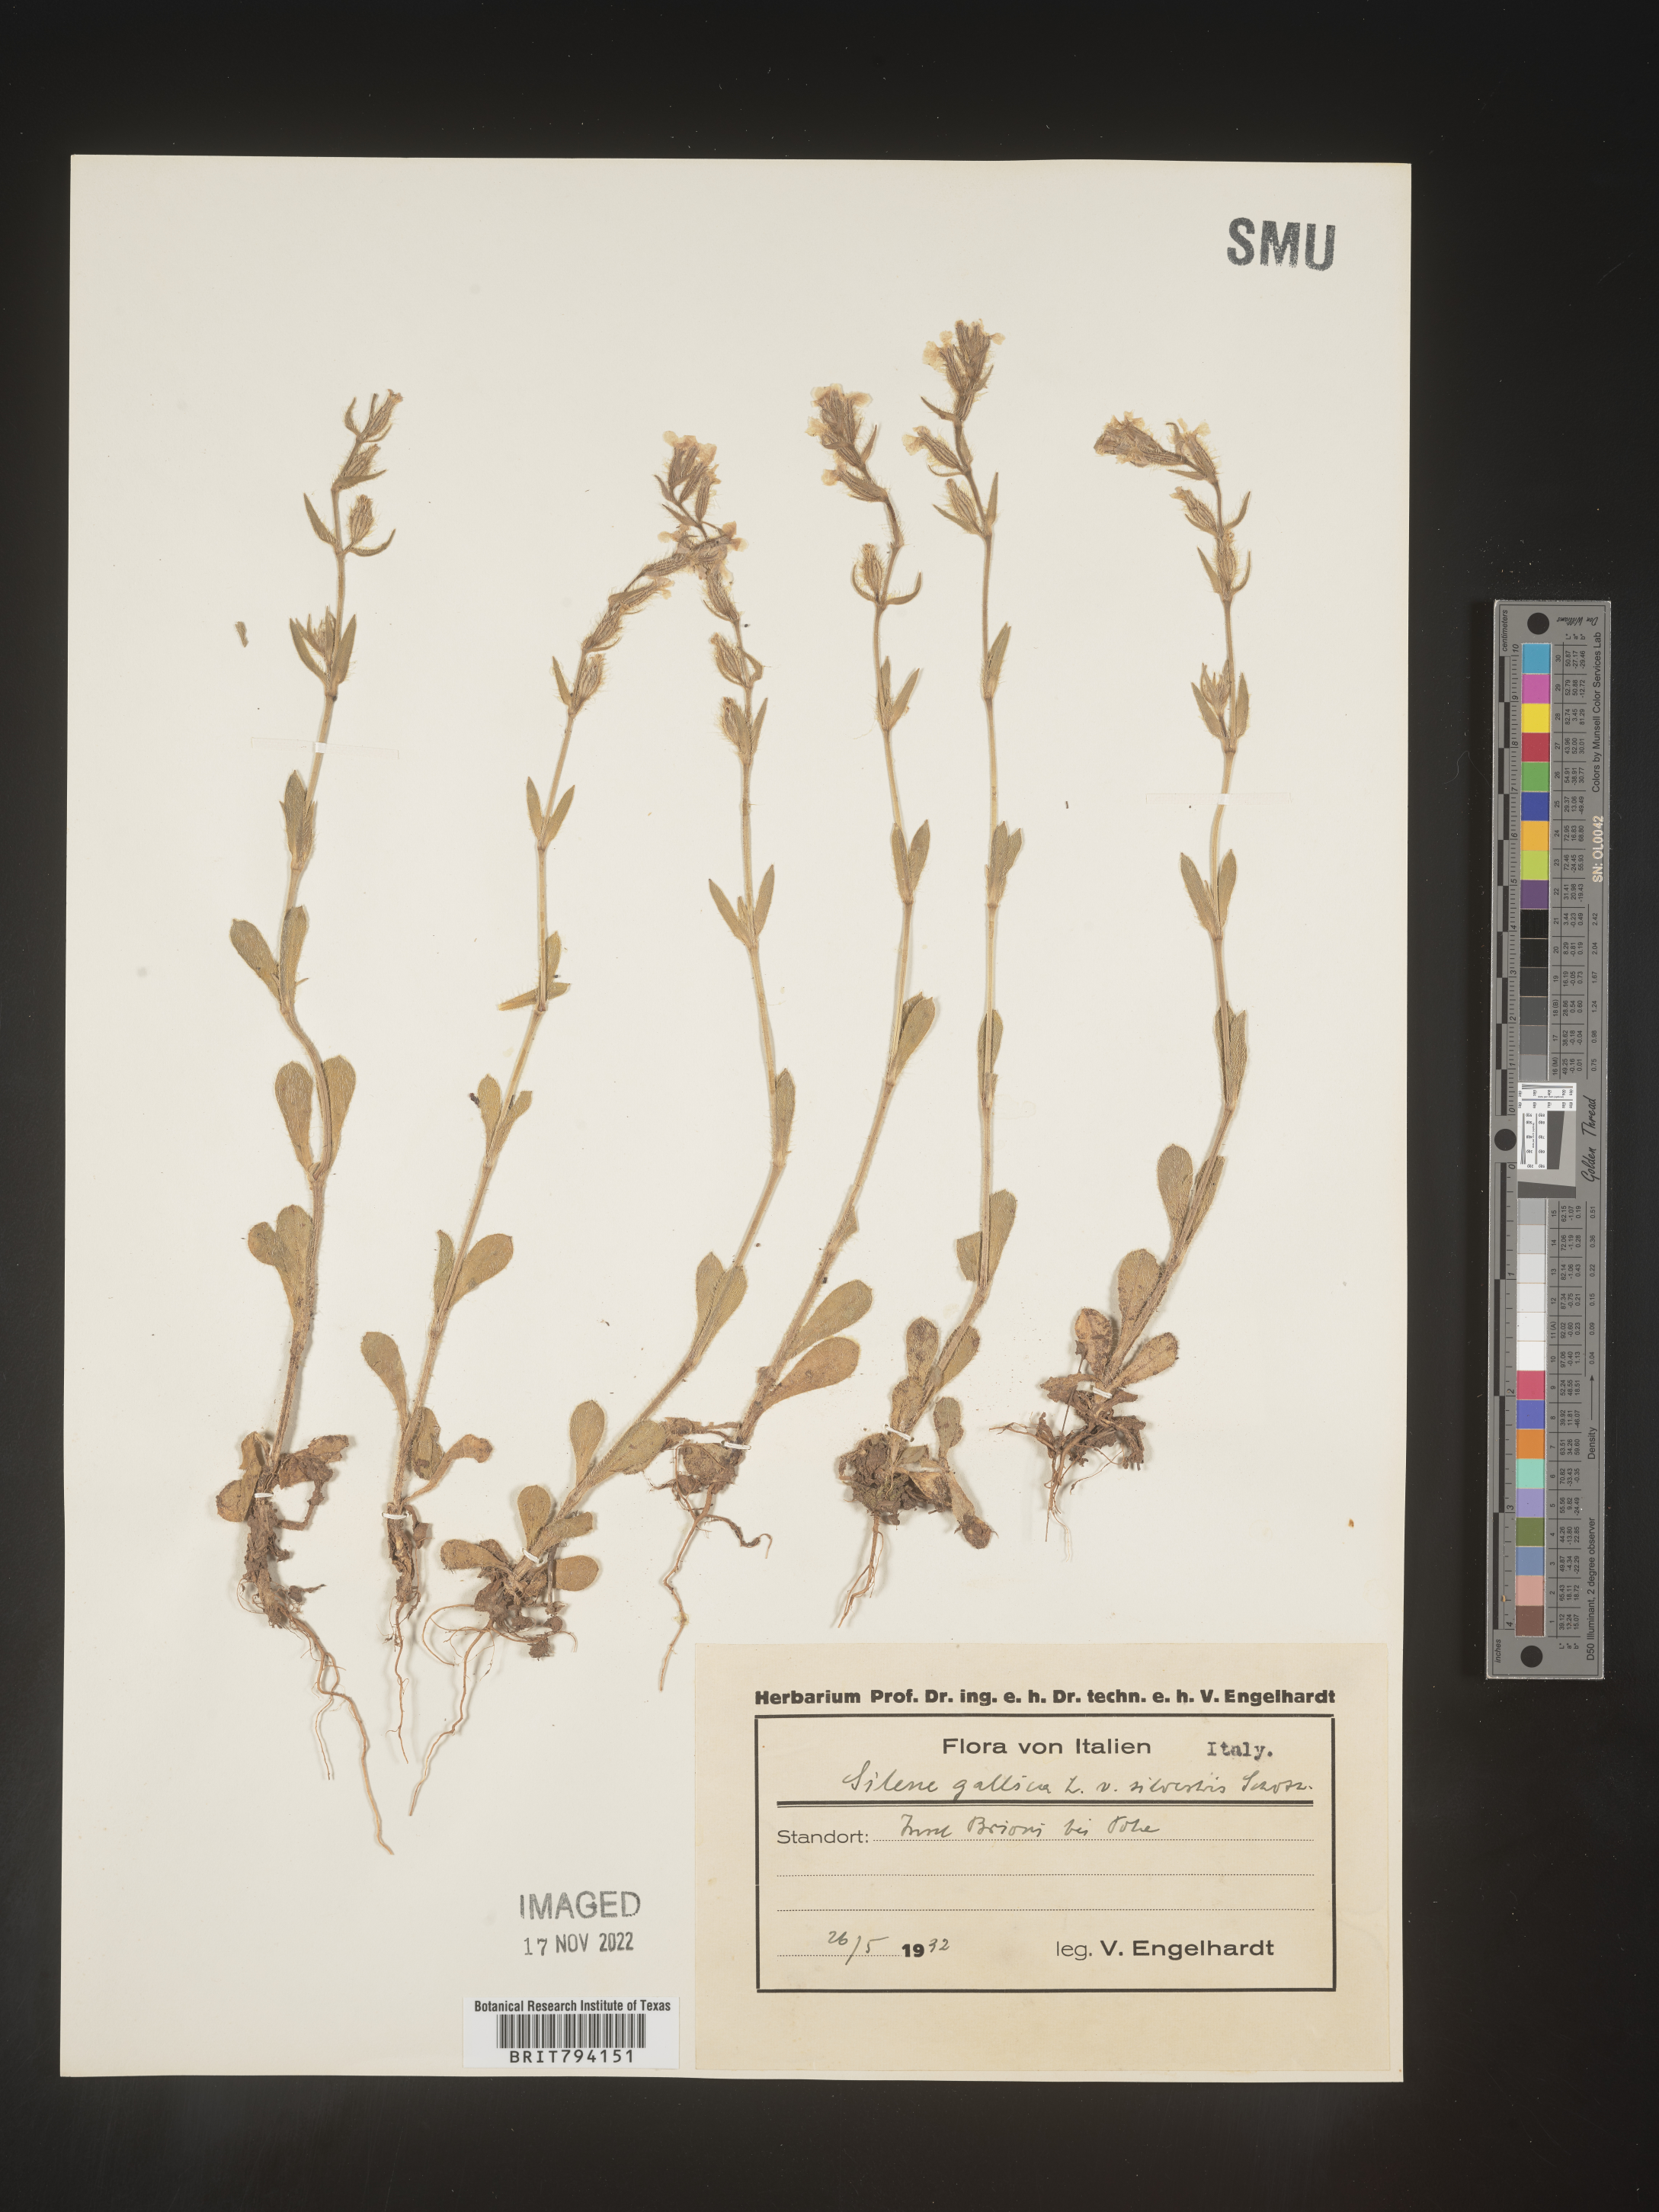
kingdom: Plantae
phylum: Tracheophyta
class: Magnoliopsida
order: Caryophyllales
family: Caryophyllaceae
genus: Silene
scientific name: Silene gallica
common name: Small-flowered catchfly
